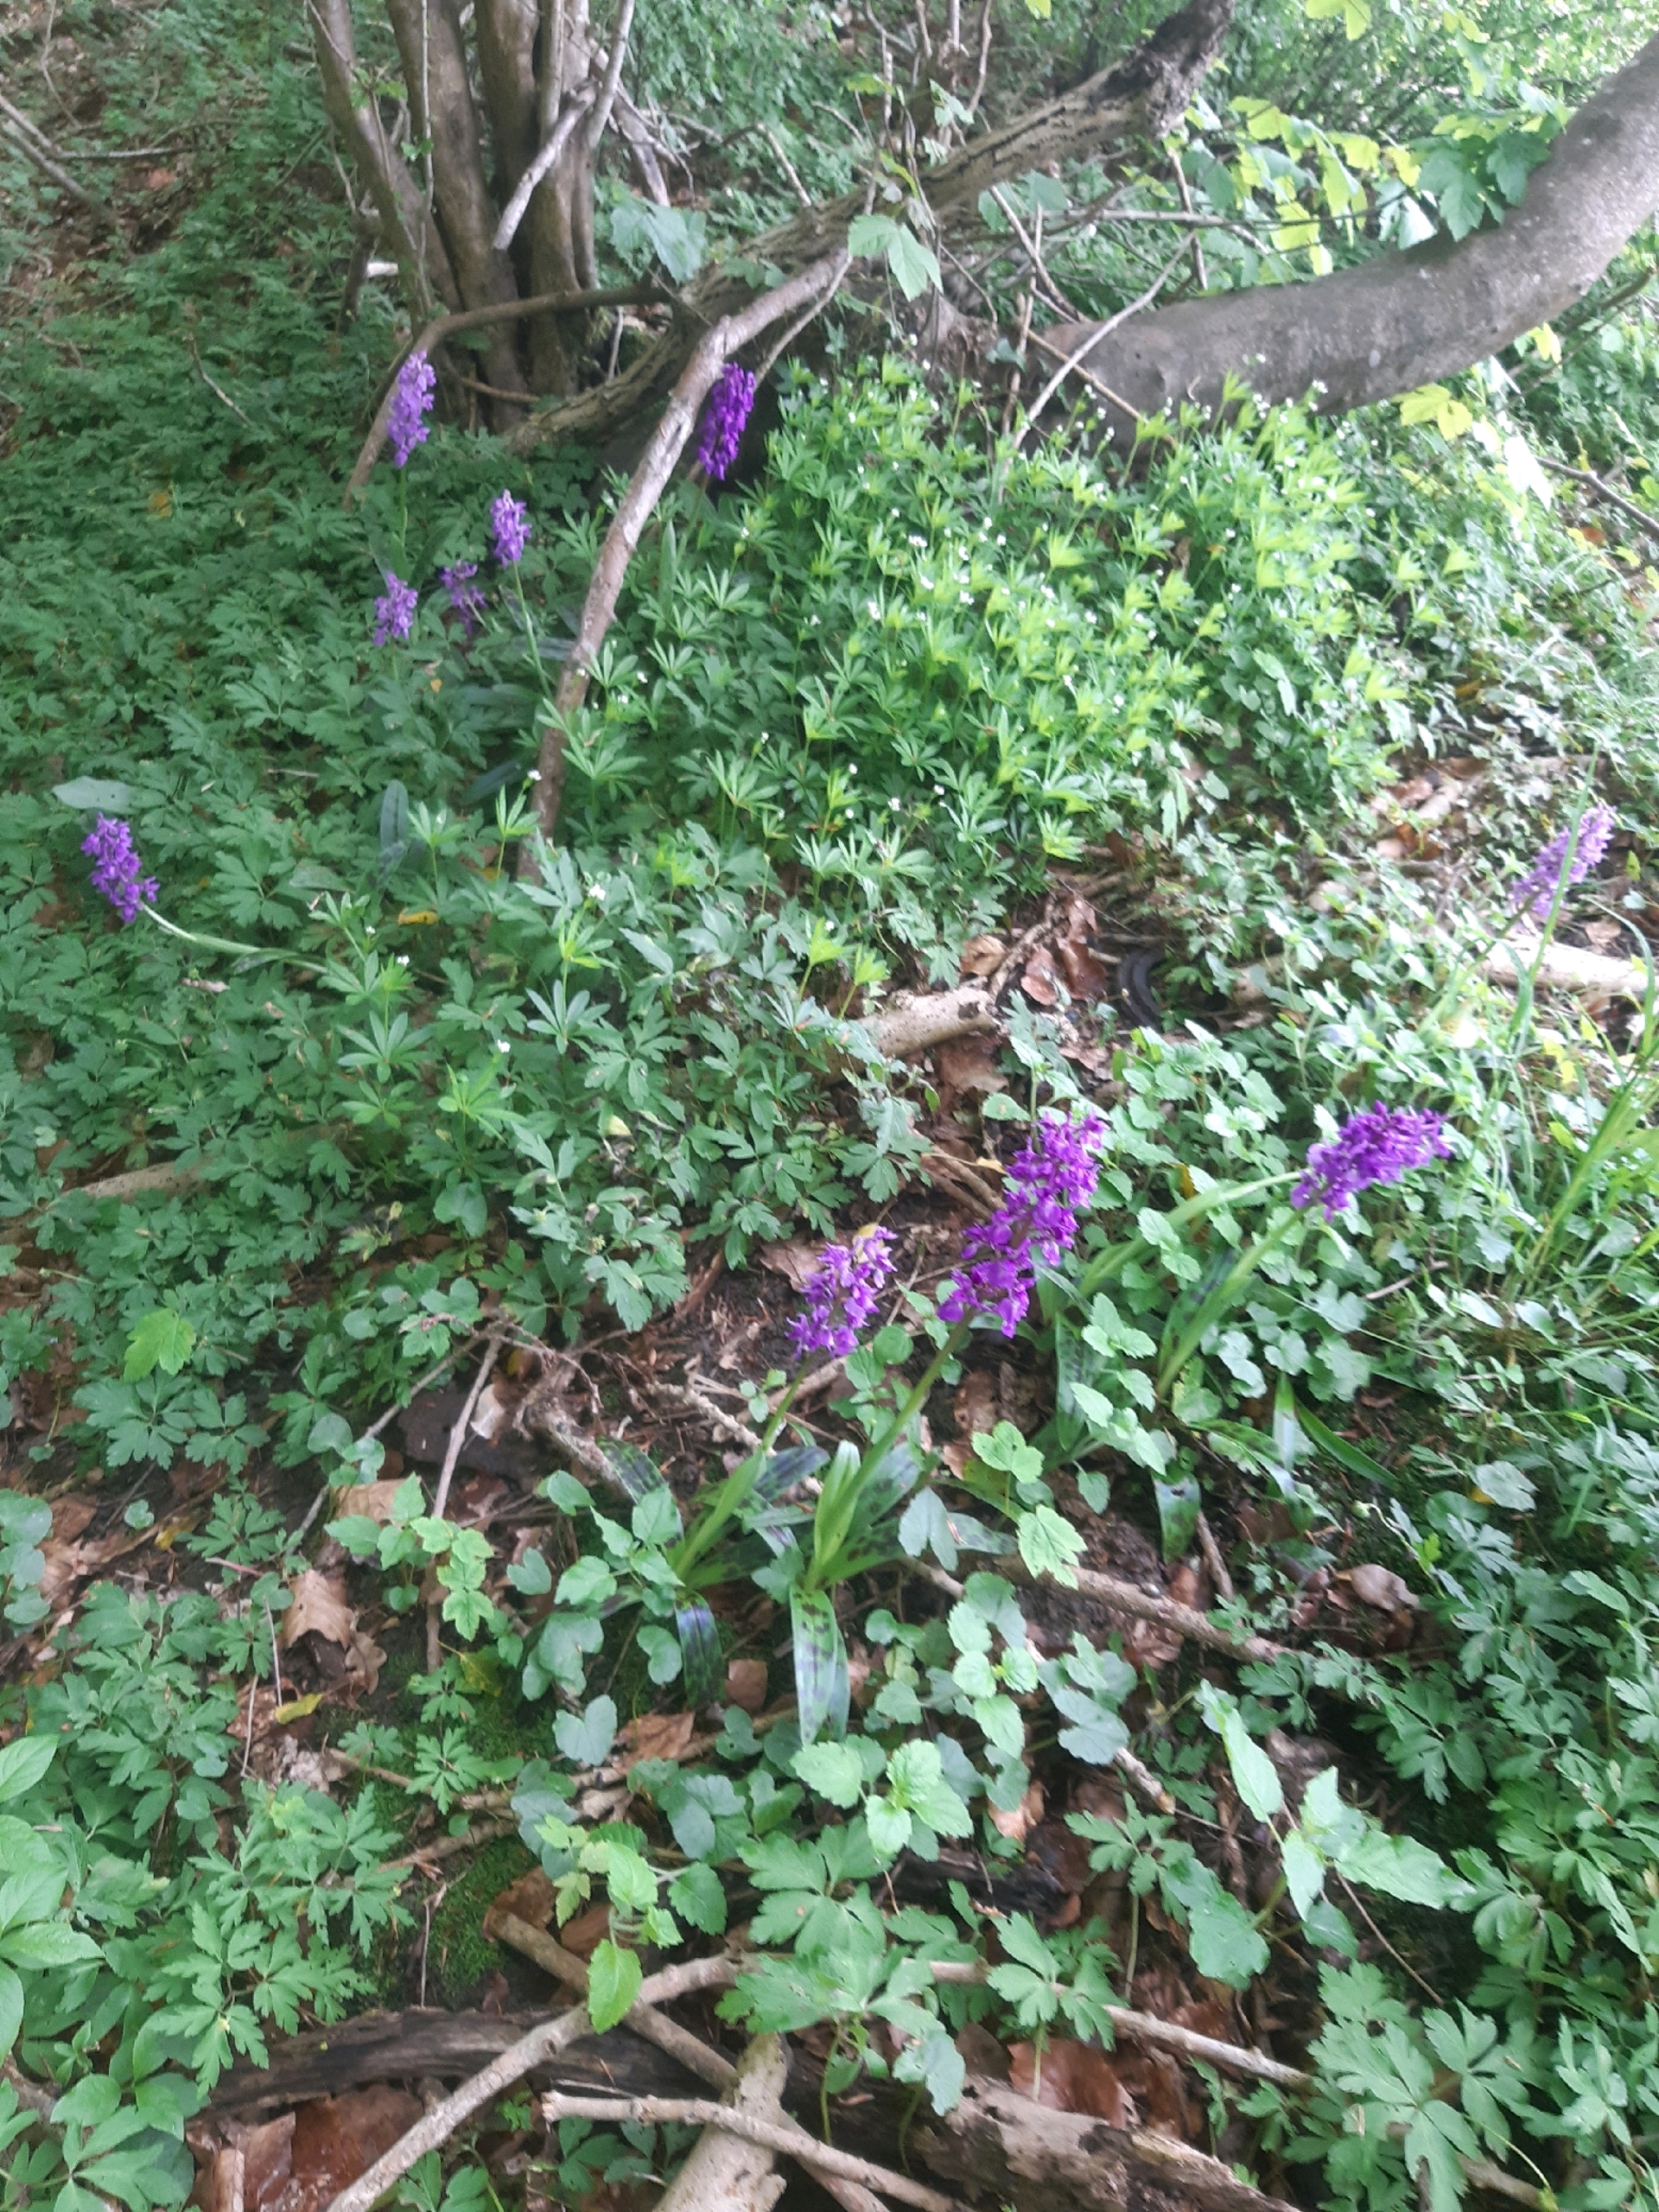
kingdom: Plantae
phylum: Tracheophyta
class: Liliopsida
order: Asparagales
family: Orchidaceae
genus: Orchis
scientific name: Orchis mascula
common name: Tyndakset gøgeurt
